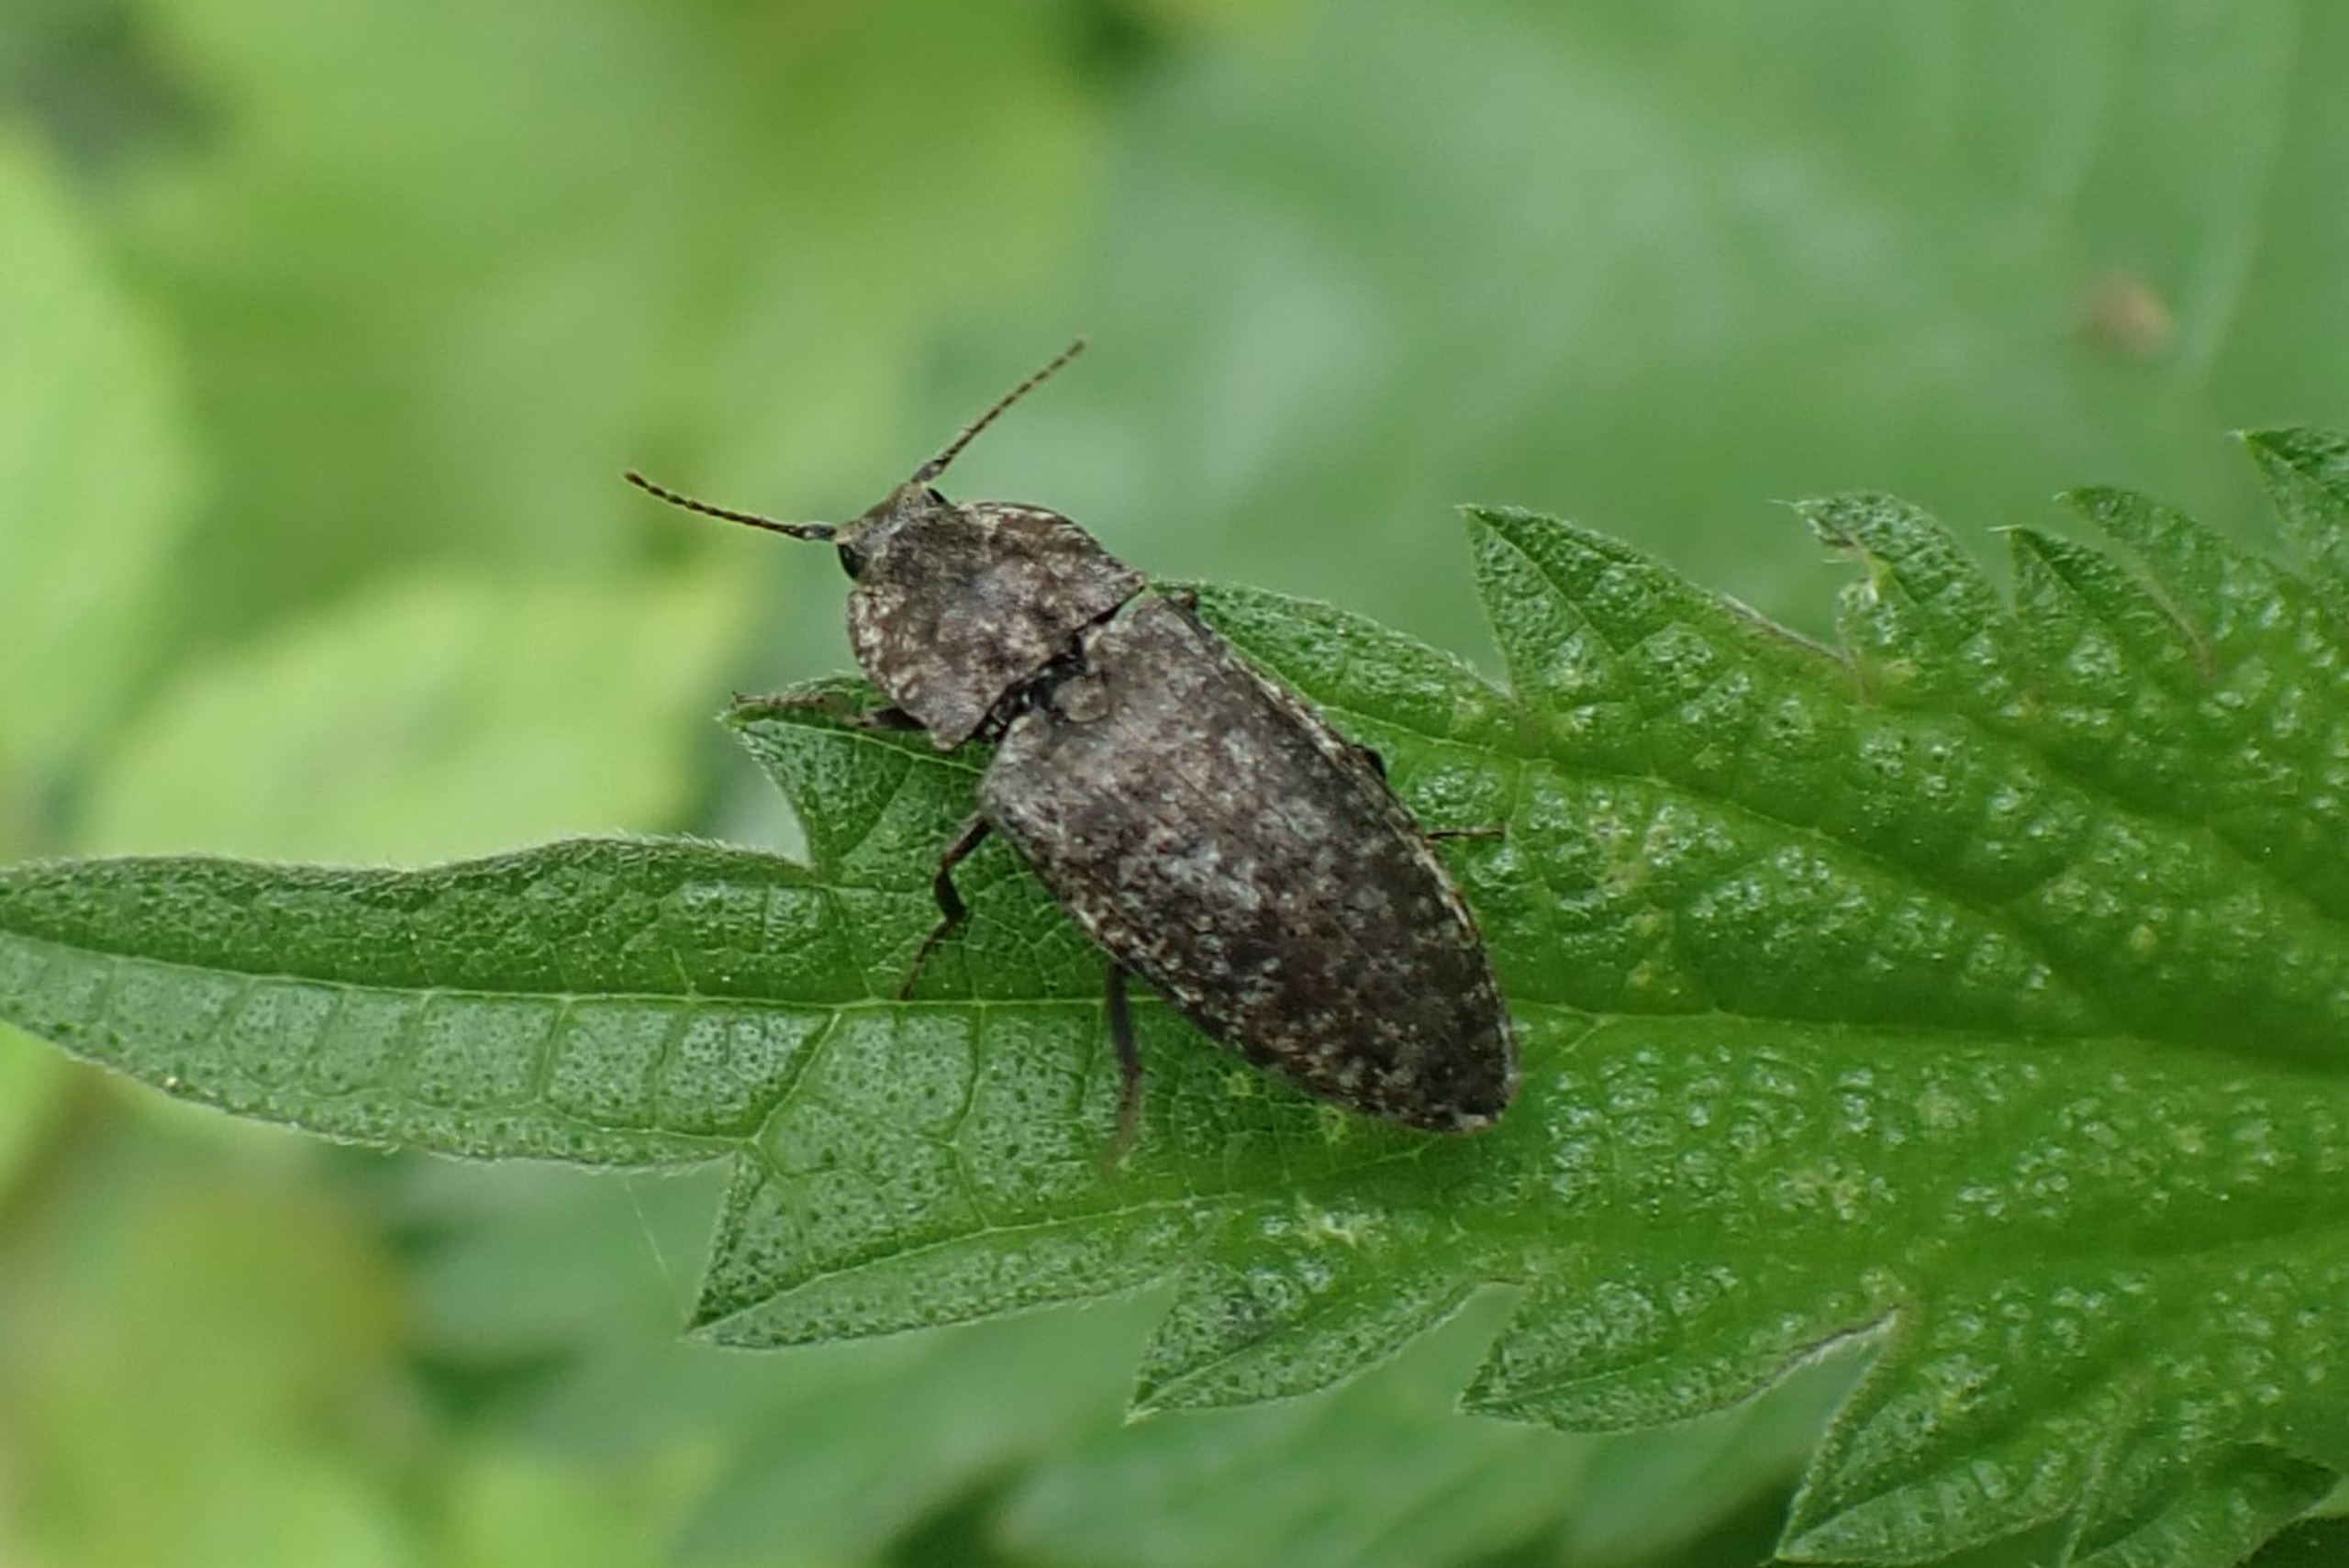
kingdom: Animalia
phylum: Arthropoda
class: Insecta
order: Coleoptera
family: Elateridae
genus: Agrypnus
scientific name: Agrypnus murinus
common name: Musegrå smælder
